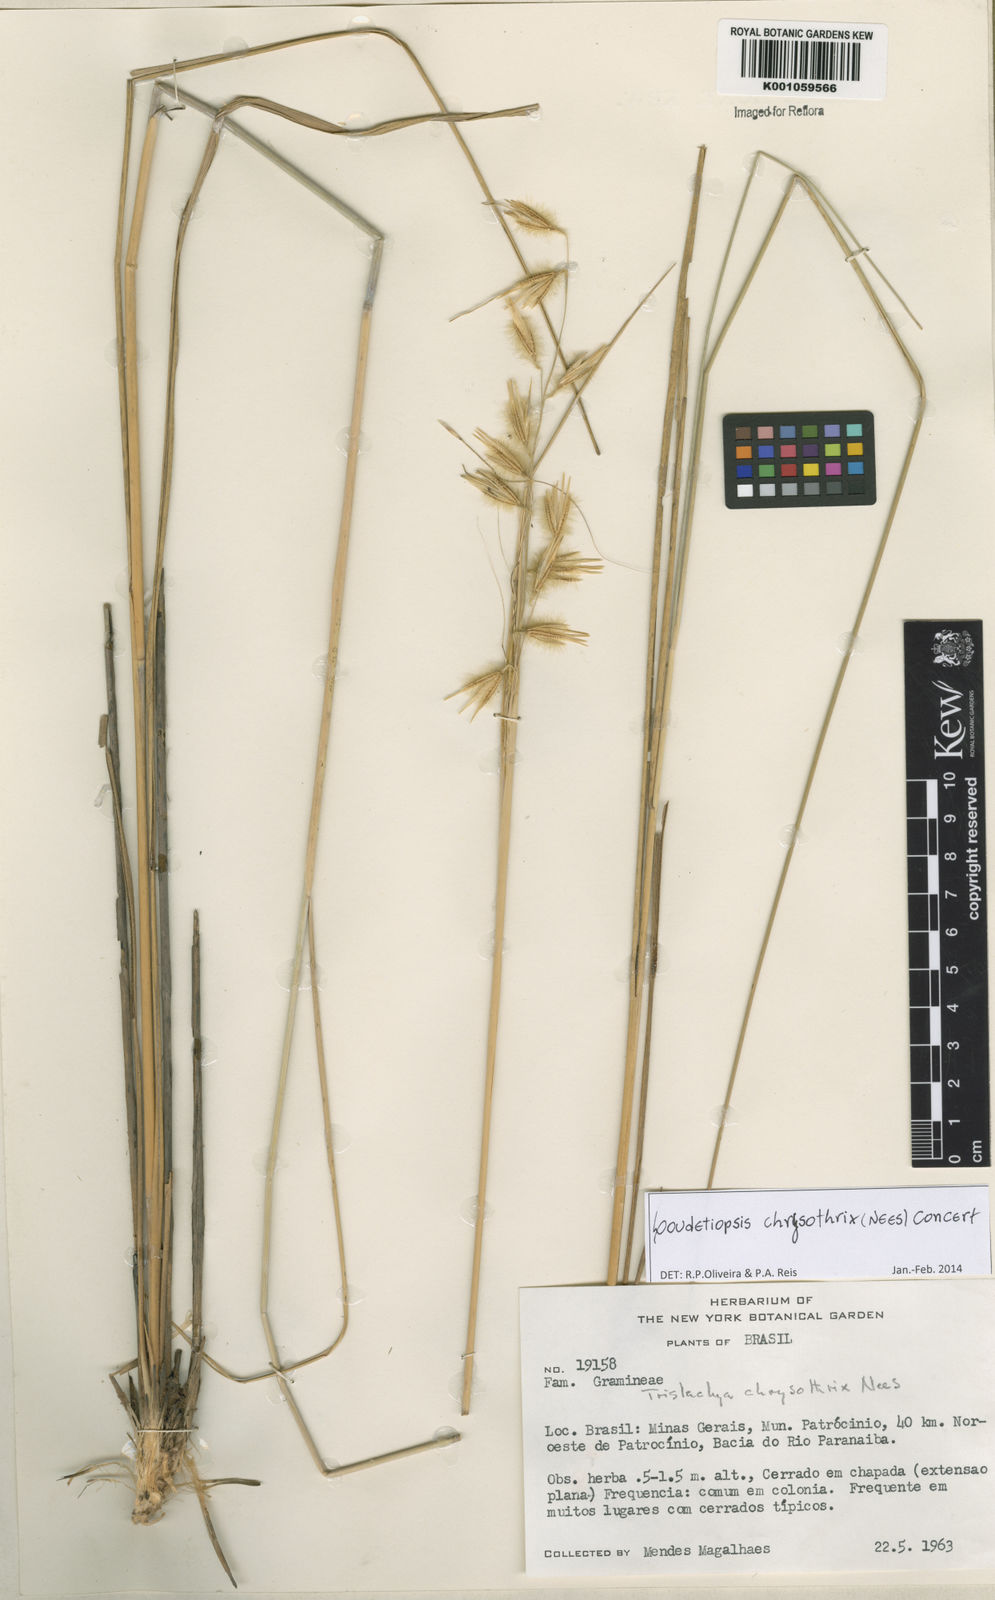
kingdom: Plantae
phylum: Tracheophyta
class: Liliopsida
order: Poales
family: Poaceae
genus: Loudetiopsis
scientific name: Loudetiopsis chrysothrix
